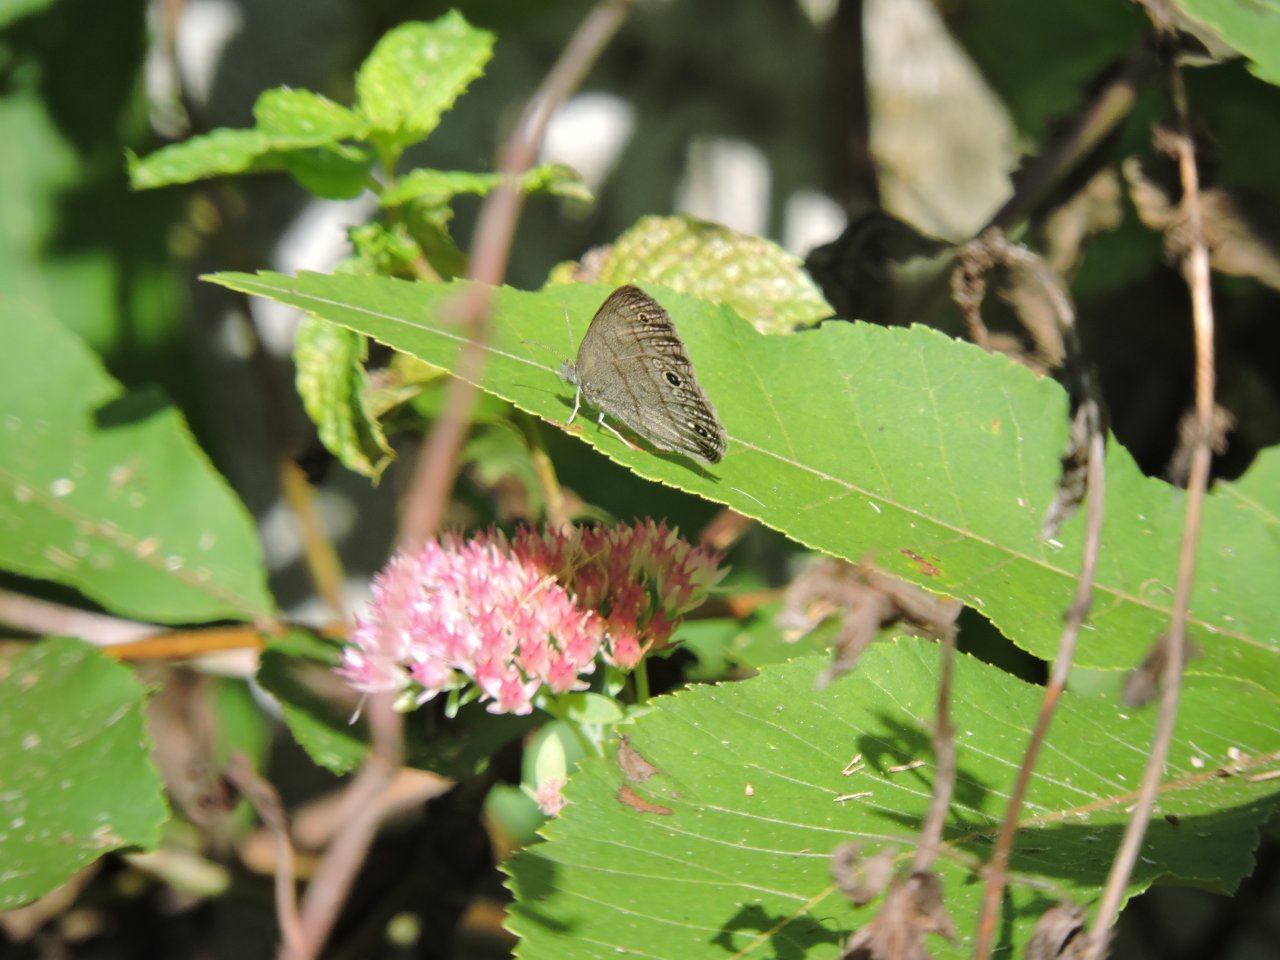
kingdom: Animalia
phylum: Arthropoda
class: Insecta
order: Lepidoptera
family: Nymphalidae
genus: Hermeuptychia
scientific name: Hermeuptychia hermes
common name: Carolina Satyr
